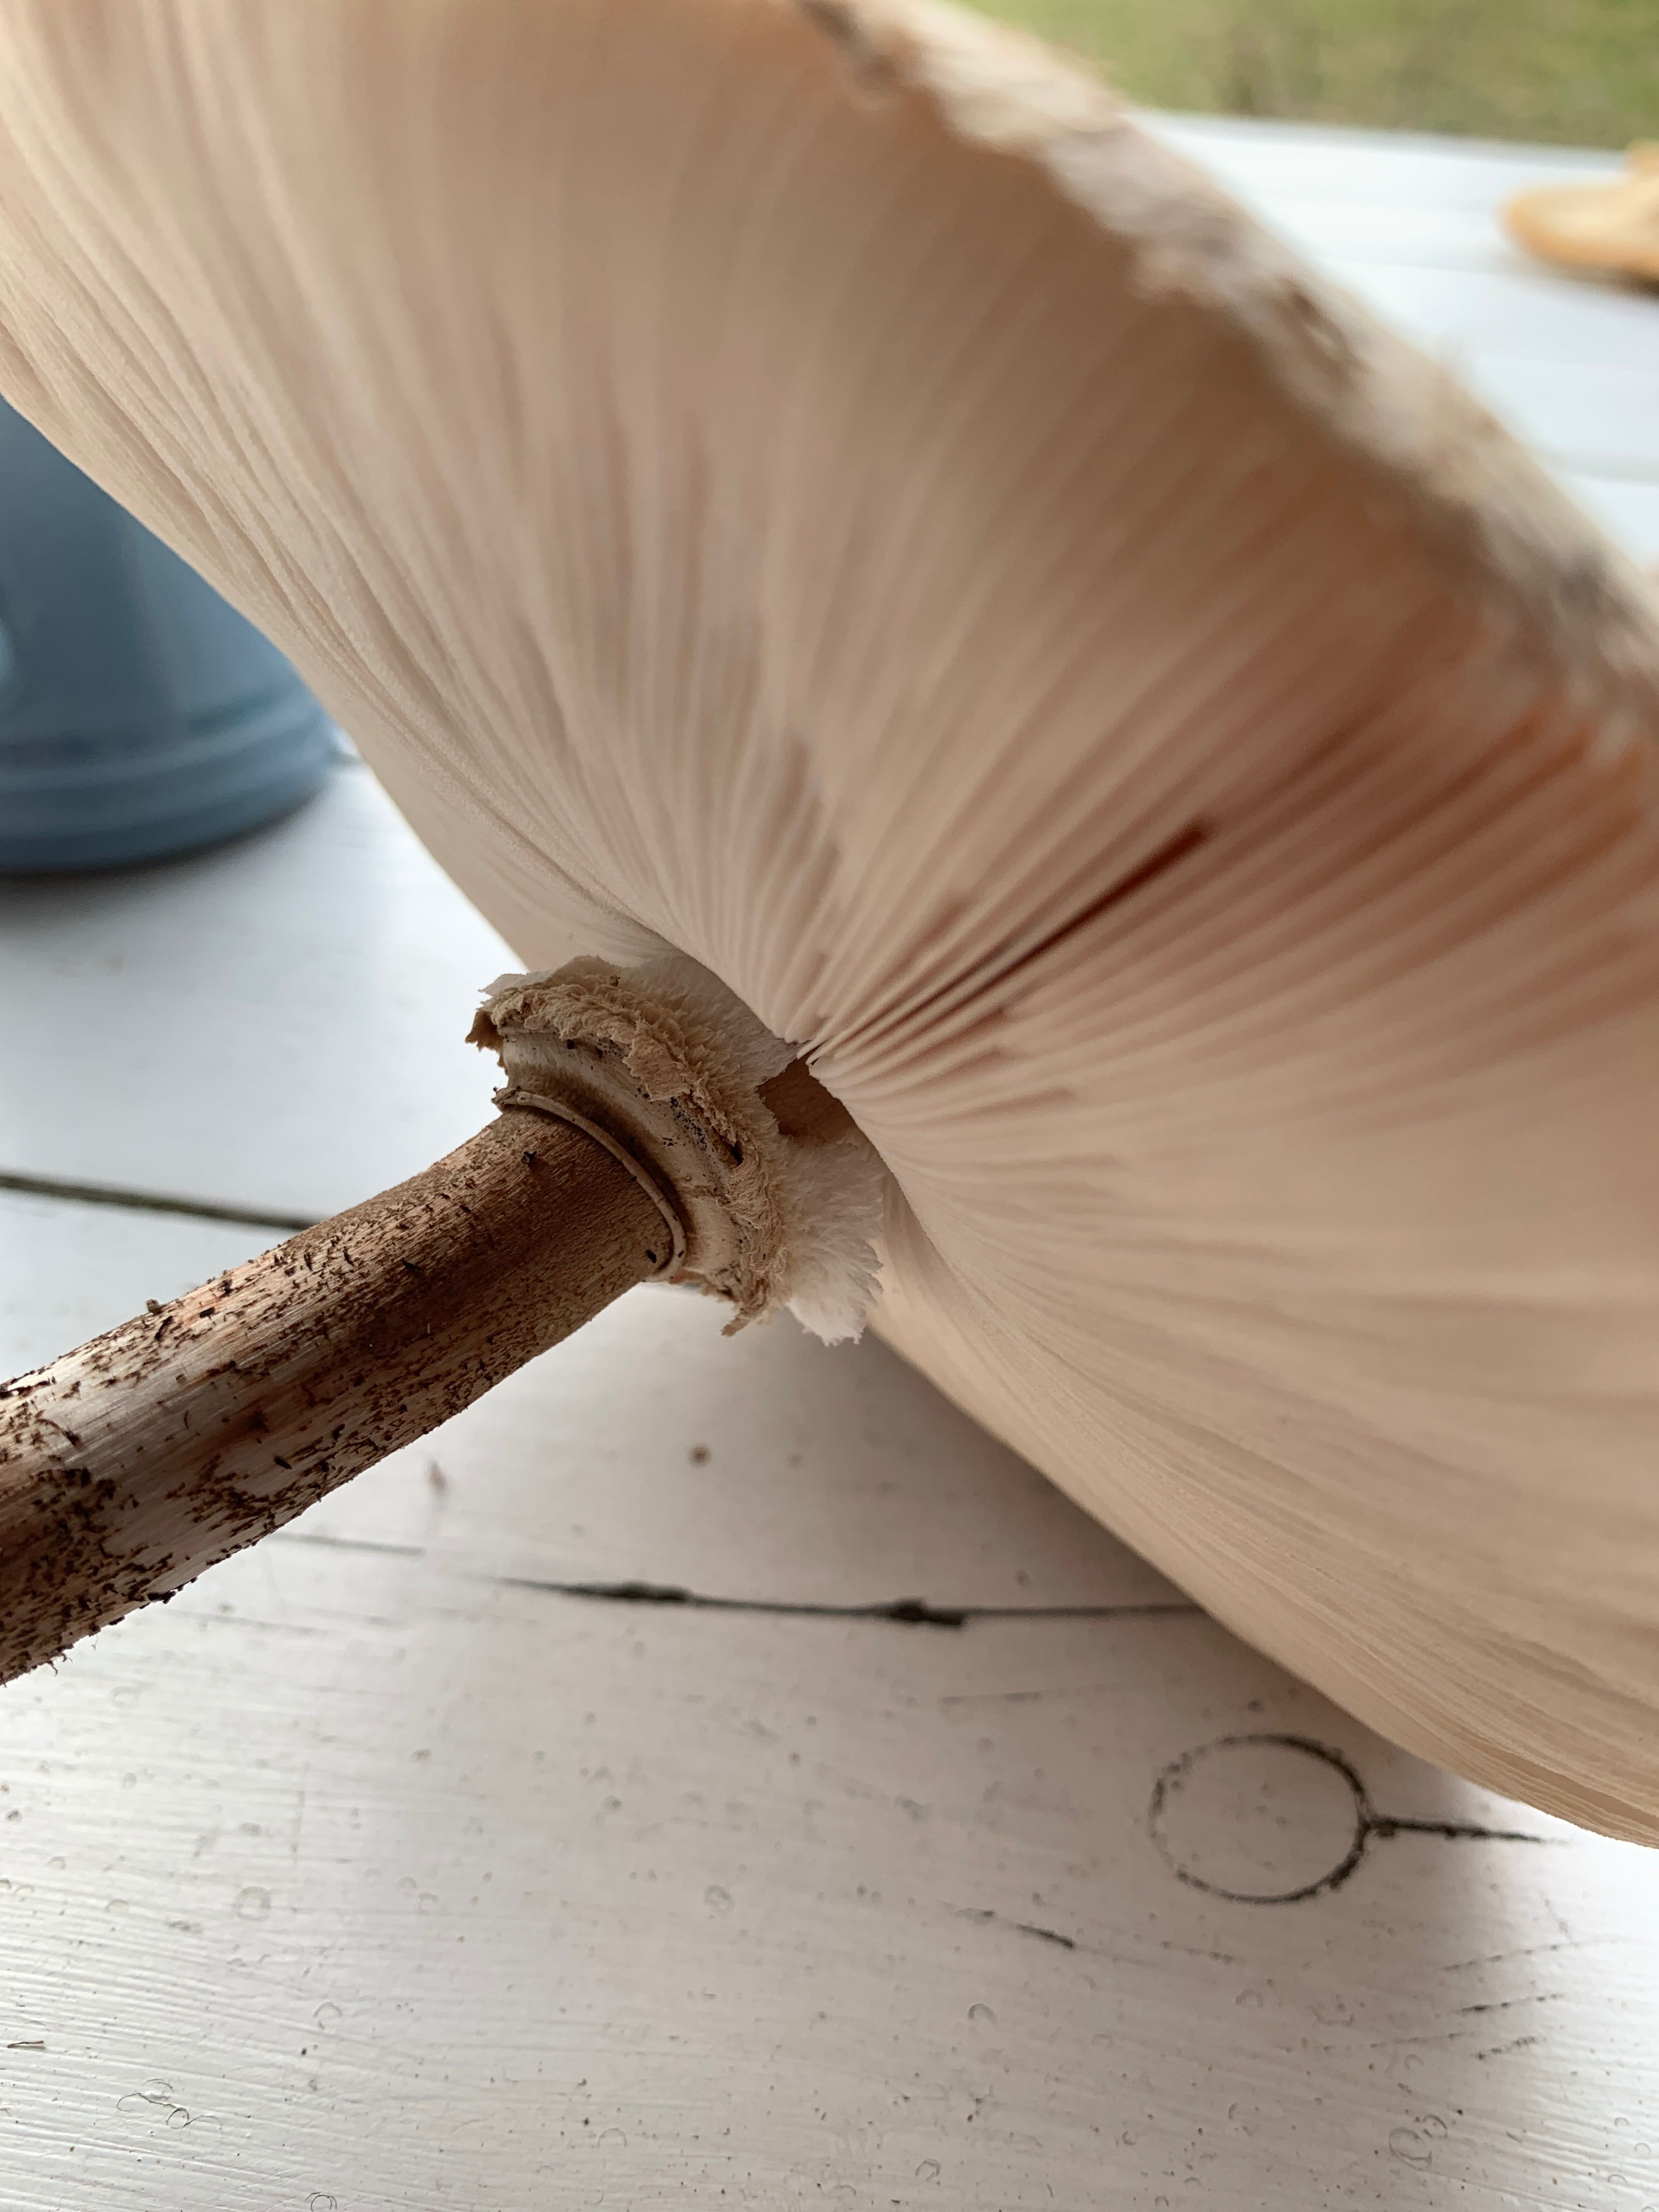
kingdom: Fungi
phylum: Basidiomycota
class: Agaricomycetes
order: Agaricales
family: Agaricaceae
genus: Macrolepiota
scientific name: Macrolepiota procera
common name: stor kæmpeparasolhat
